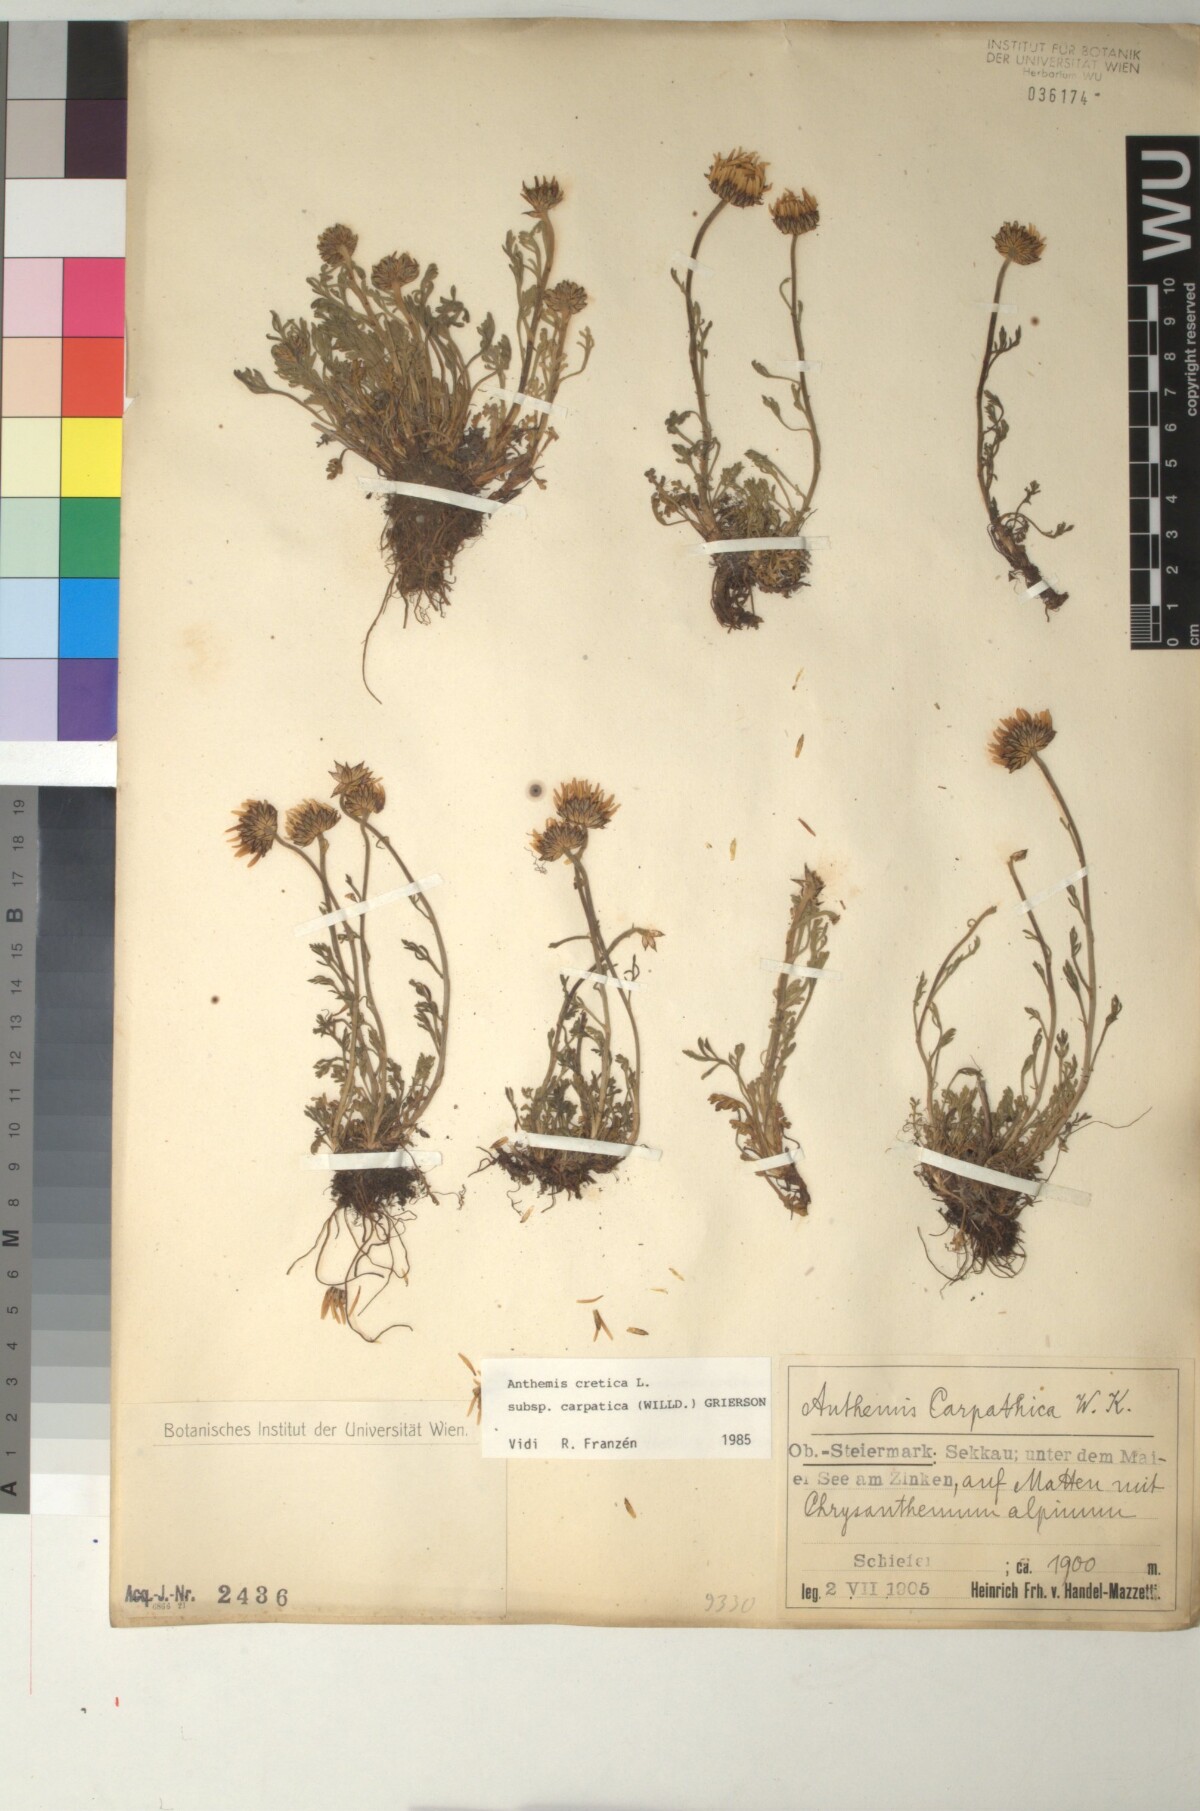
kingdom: Plantae
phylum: Tracheophyta
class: Magnoliopsida
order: Asterales
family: Asteraceae
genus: Anthemis
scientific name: Anthemis cretica
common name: Mountain dog-daisy
